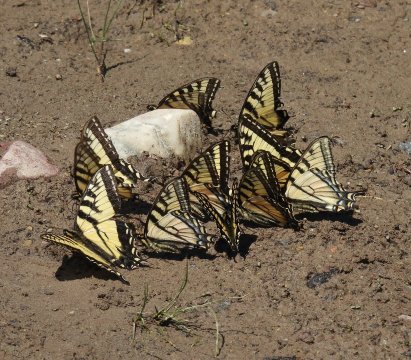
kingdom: Animalia
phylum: Arthropoda
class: Insecta
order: Lepidoptera
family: Papilionidae
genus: Pterourus
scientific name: Pterourus canadensis
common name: Canadian Tiger Swallowtail
